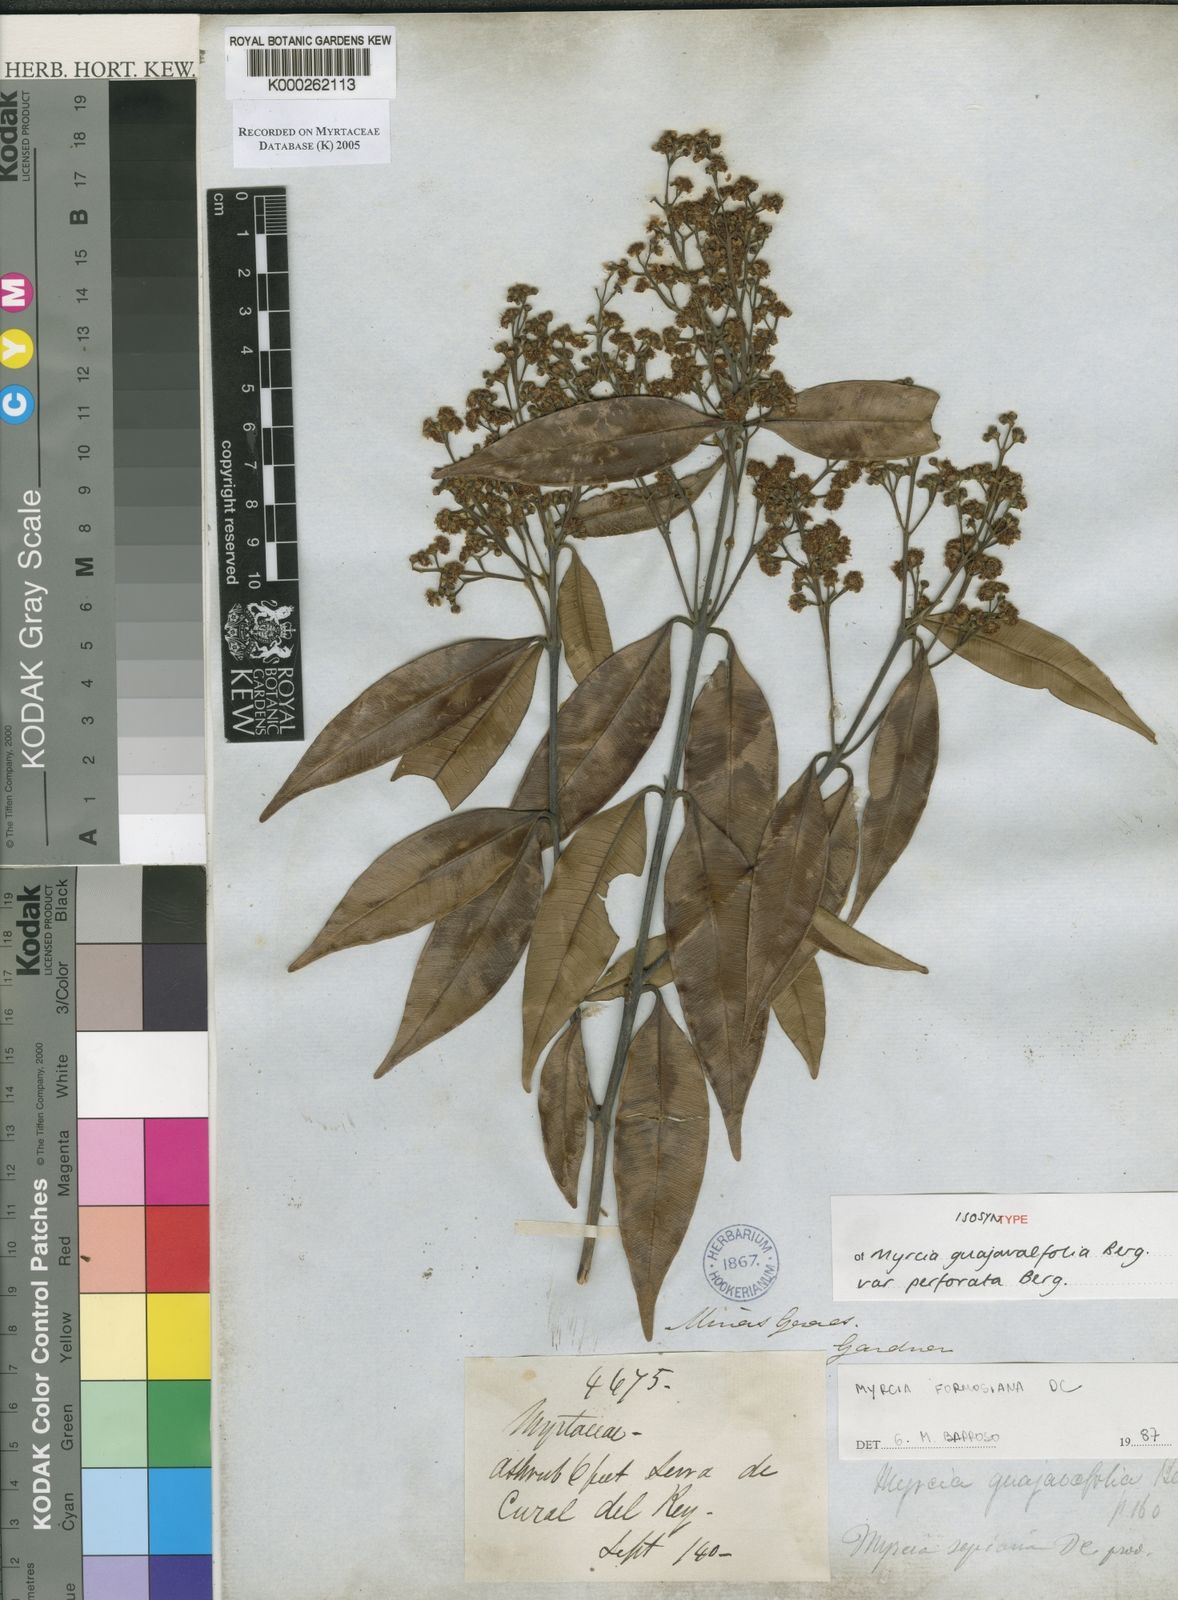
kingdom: Plantae
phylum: Tracheophyta
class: Magnoliopsida
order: Myrtales
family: Myrtaceae
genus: Myrcia
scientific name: Myrcia splendens
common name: Surinam cherry
